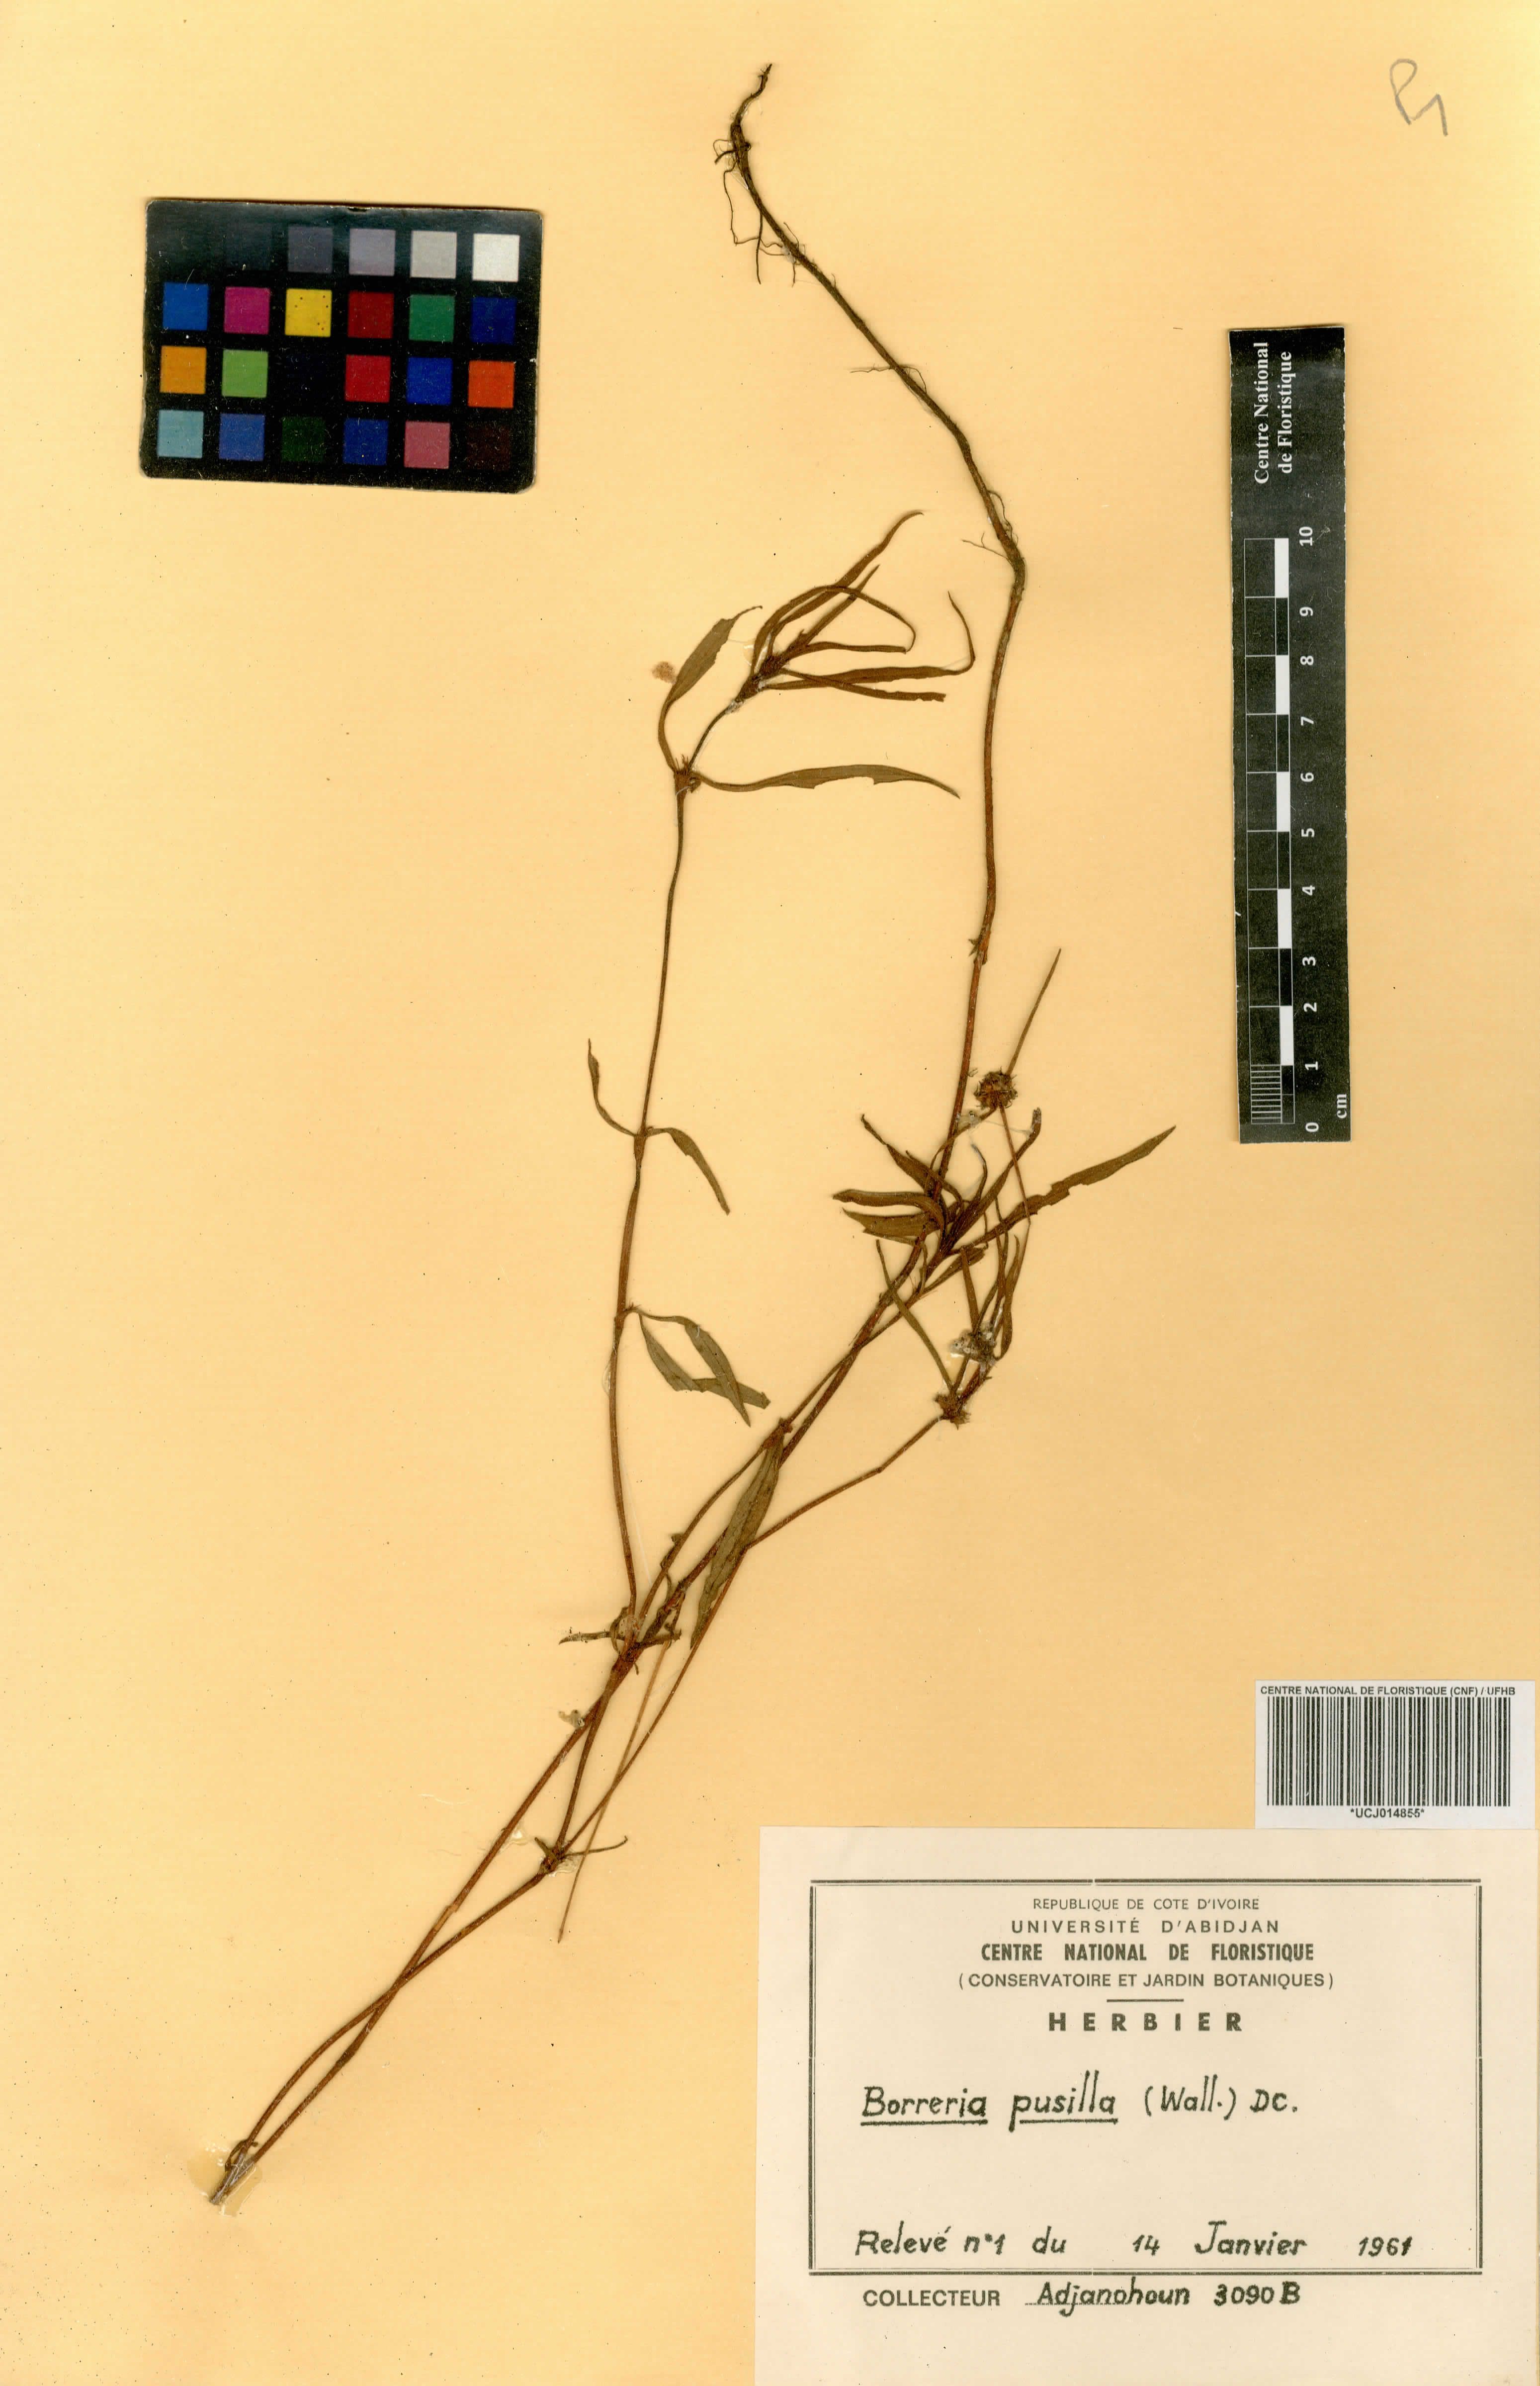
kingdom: Plantae
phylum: Tracheophyta
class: Magnoliopsida
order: Gentianales
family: Rubiaceae
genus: Spermacoce
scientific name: Spermacoce pusilla
